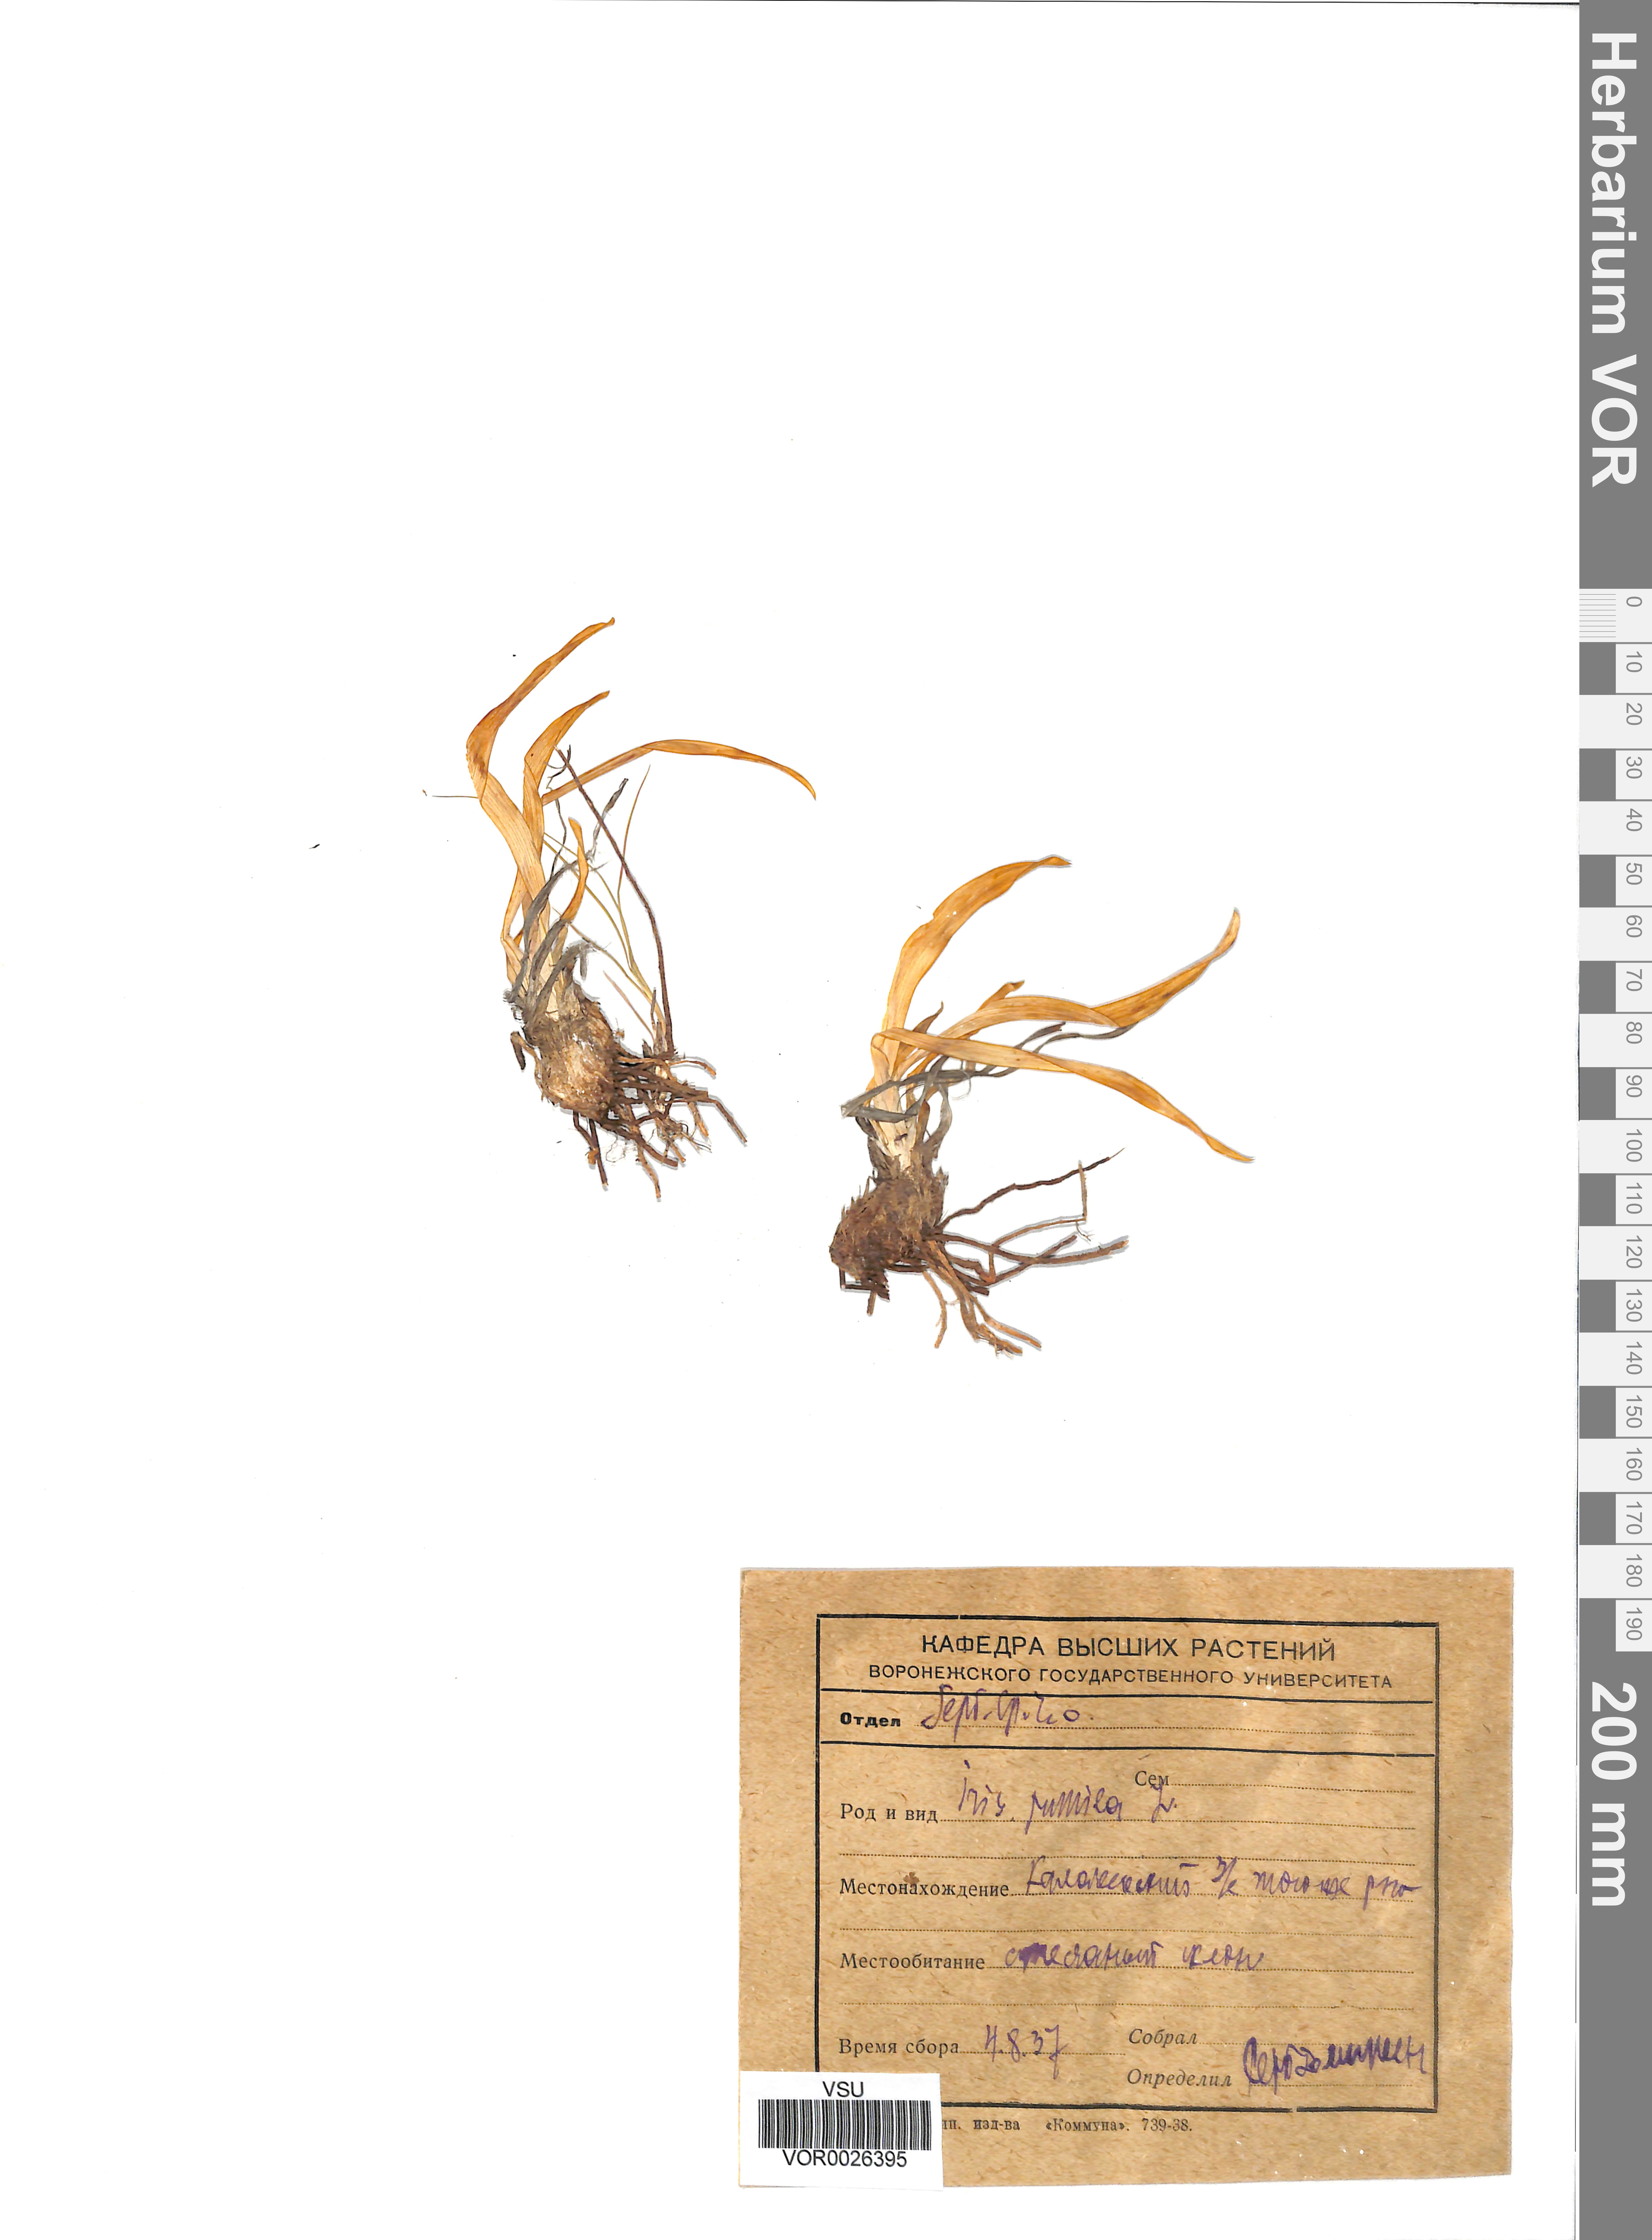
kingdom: Plantae
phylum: Tracheophyta
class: Liliopsida
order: Asparagales
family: Iridaceae
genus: Iris
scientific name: Iris pumila
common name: Dwarf iris
